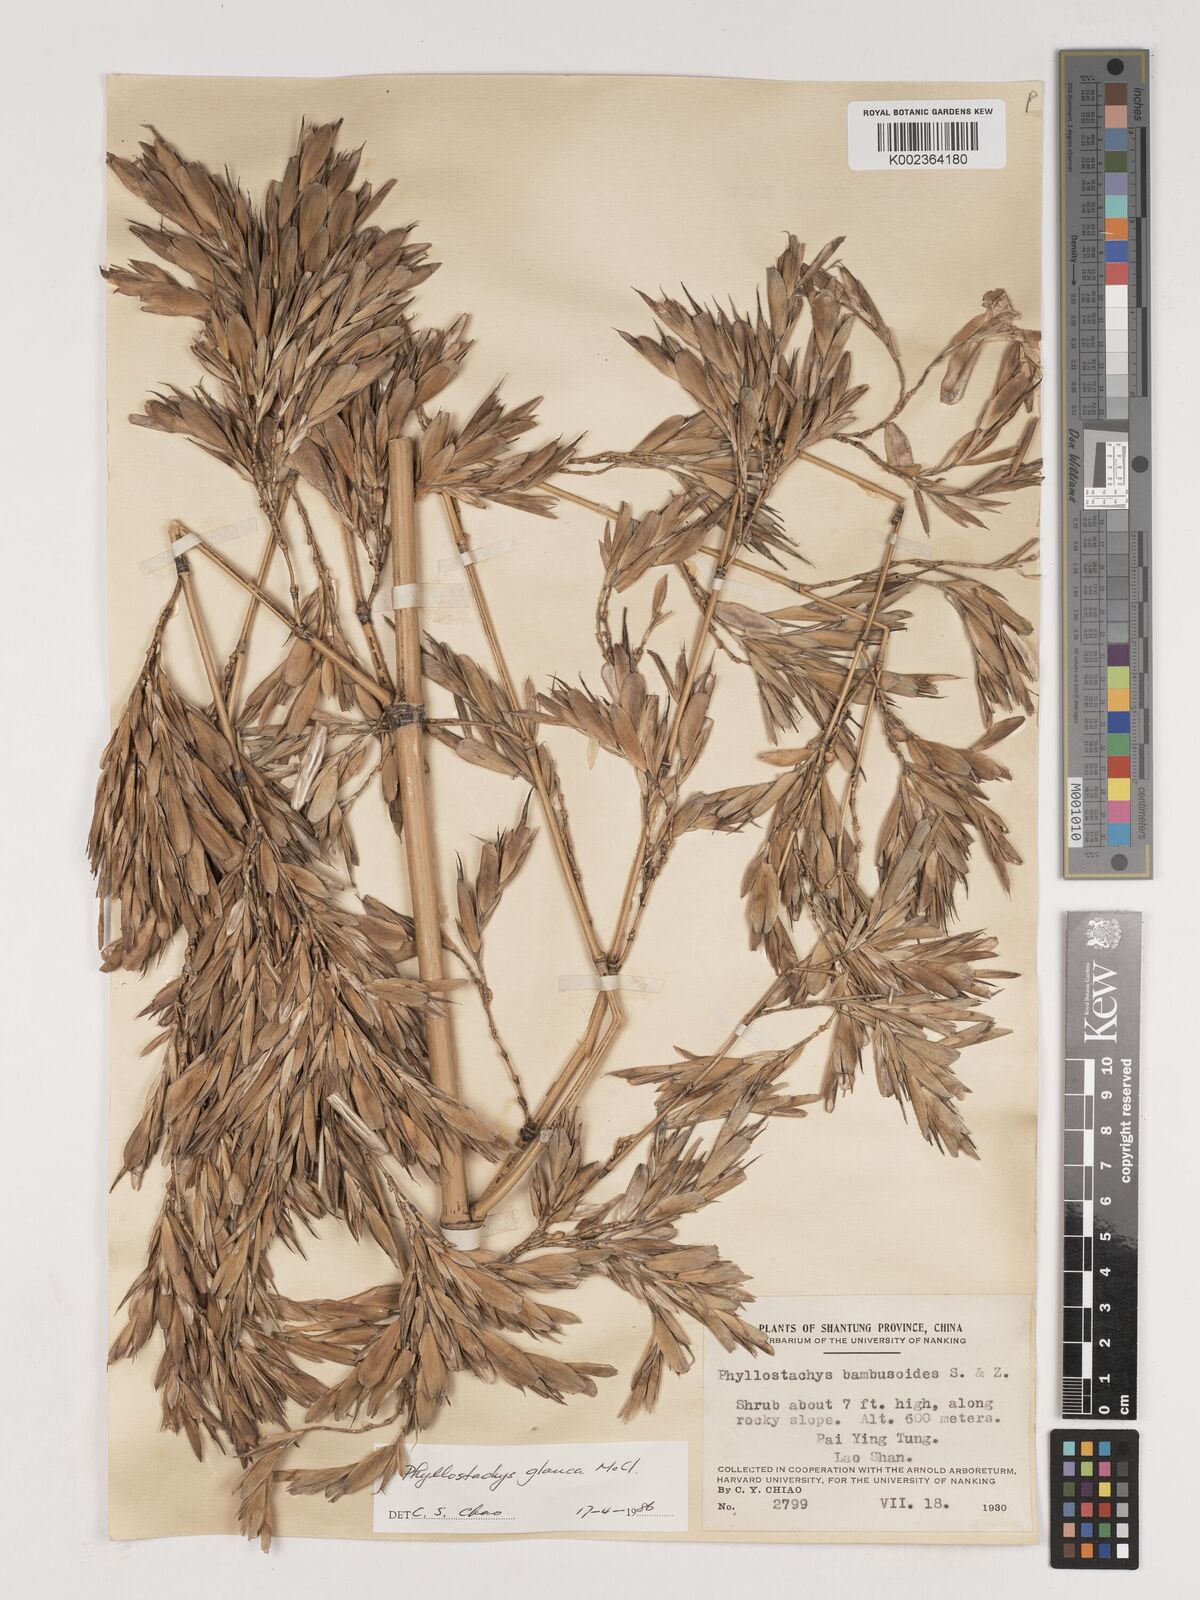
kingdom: Plantae
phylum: Tracheophyta
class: Liliopsida
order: Poales
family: Poaceae
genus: Phyllostachys
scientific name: Phyllostachys glauca
